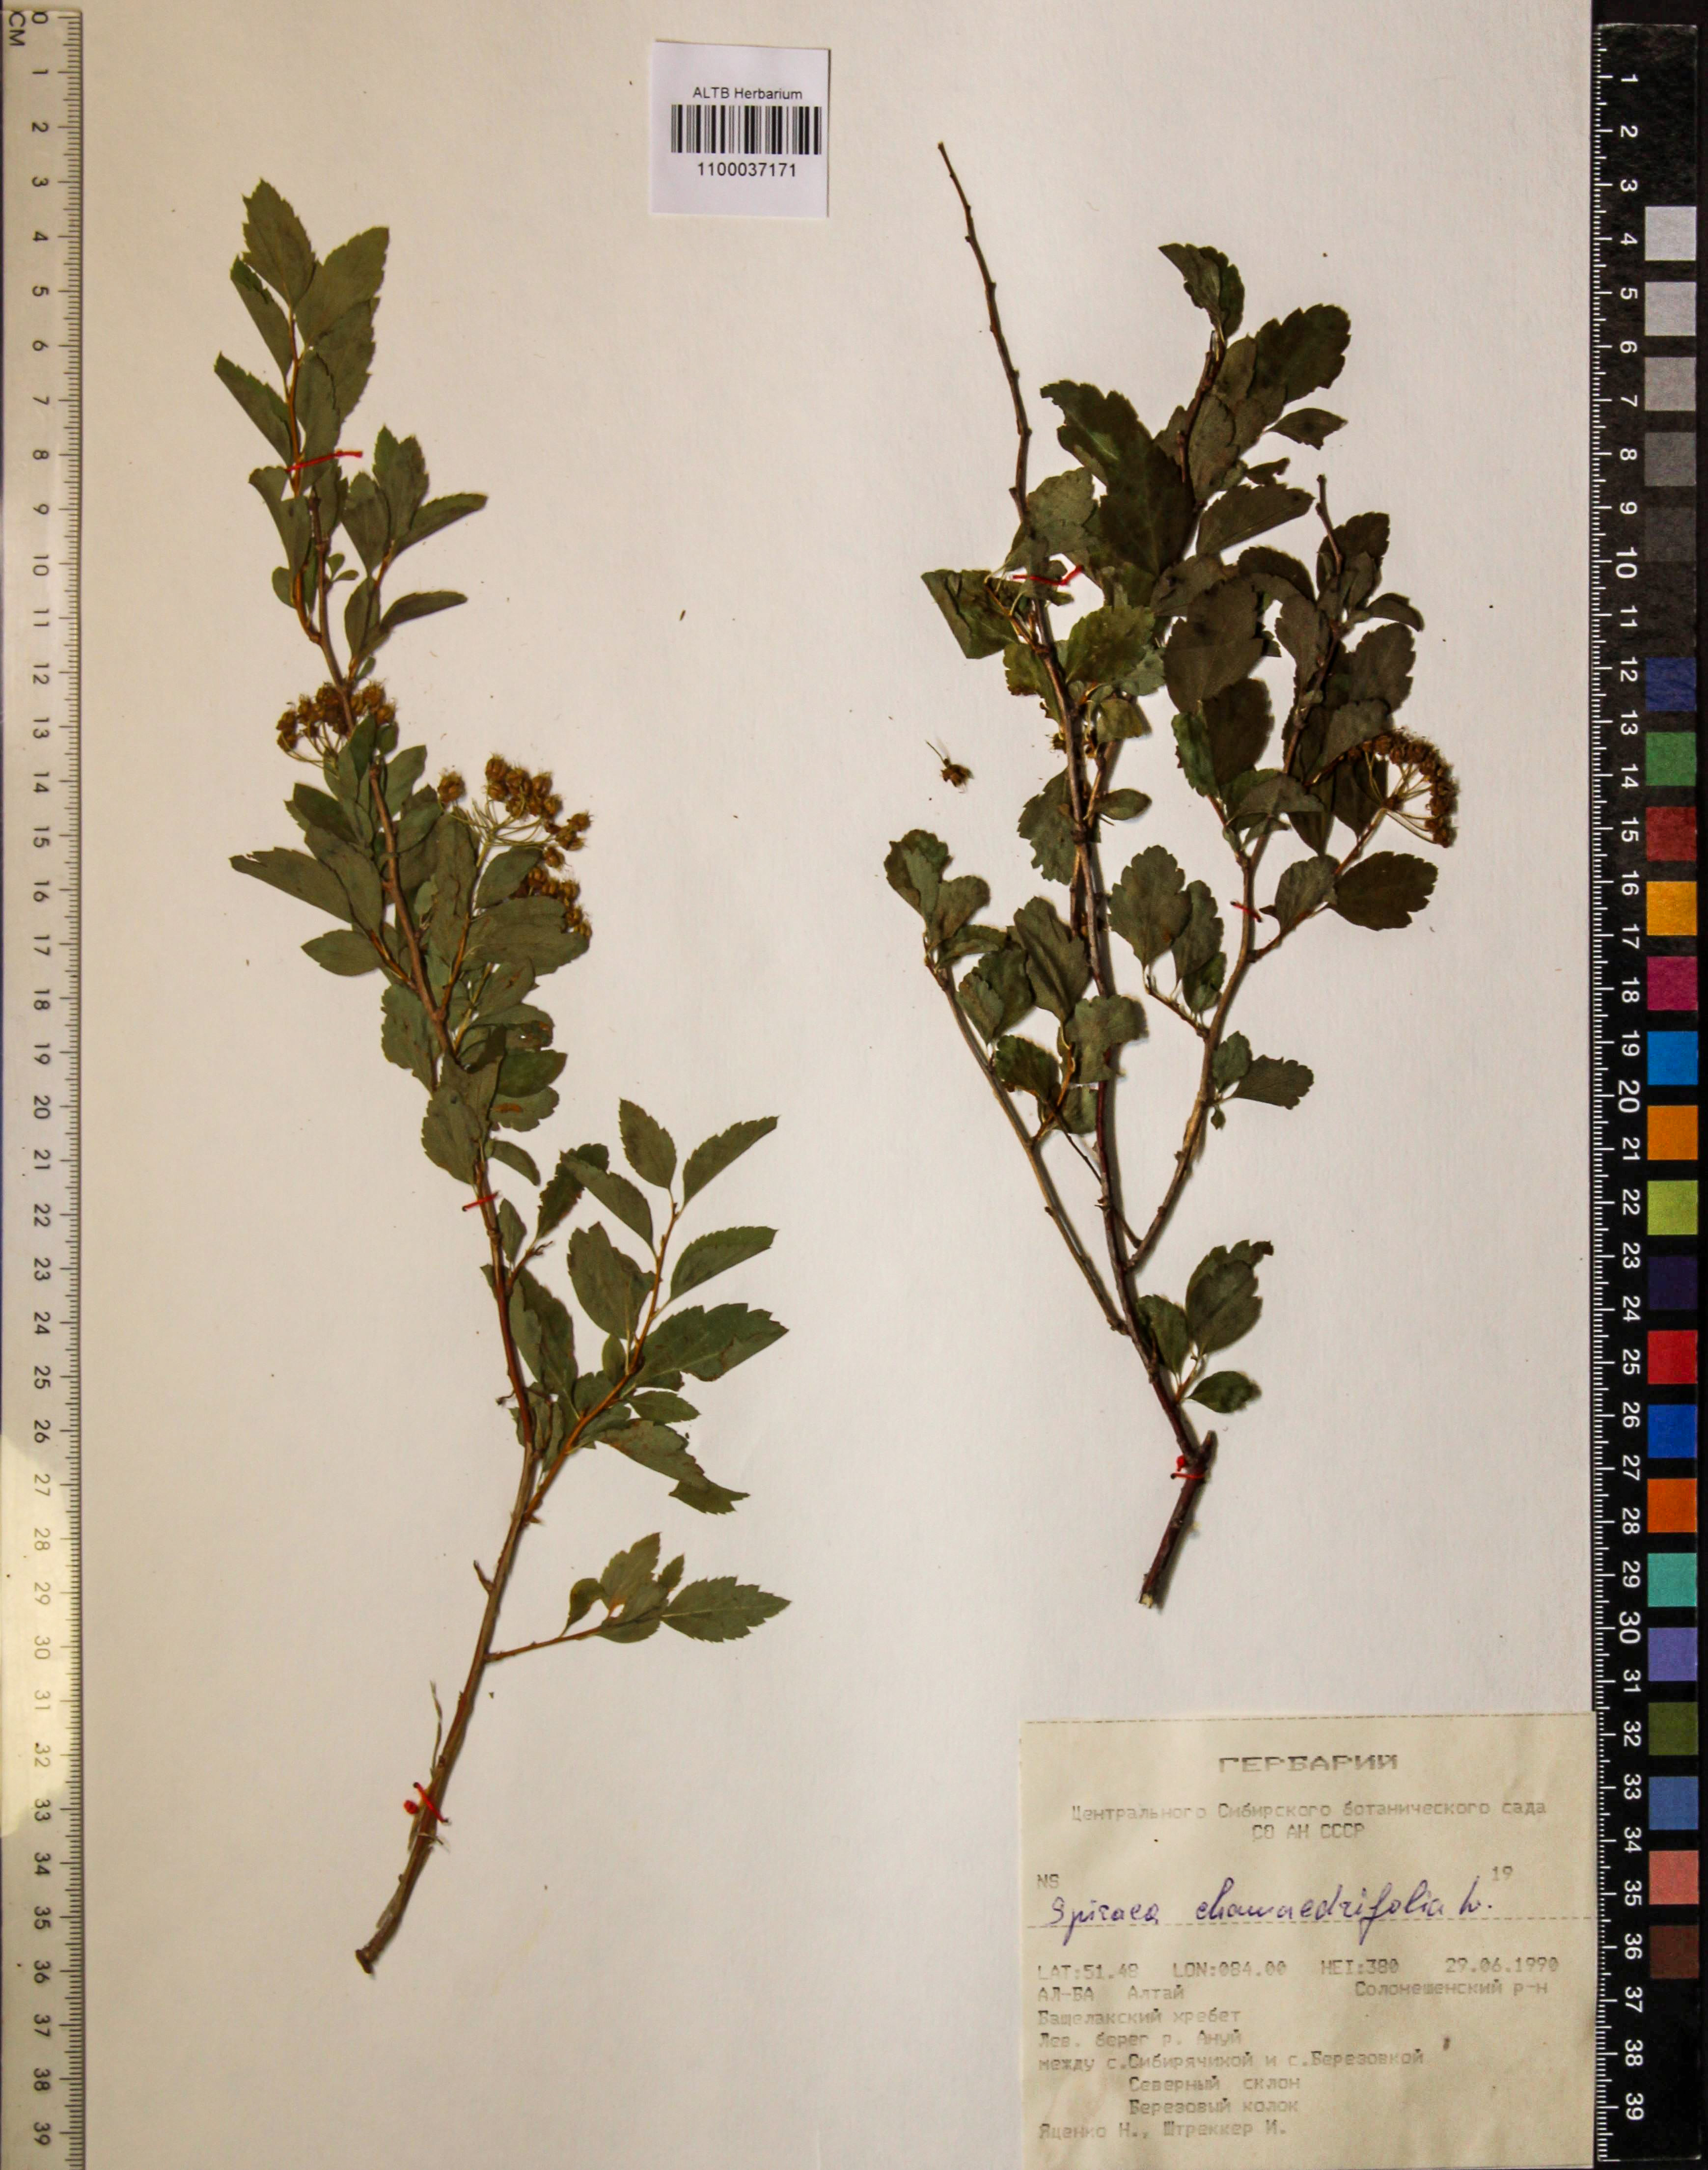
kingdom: Plantae
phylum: Tracheophyta
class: Magnoliopsida
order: Rosales
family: Rosaceae
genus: Spiraea
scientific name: Spiraea chamaedryfolia
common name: Elm-leaved spiraea
